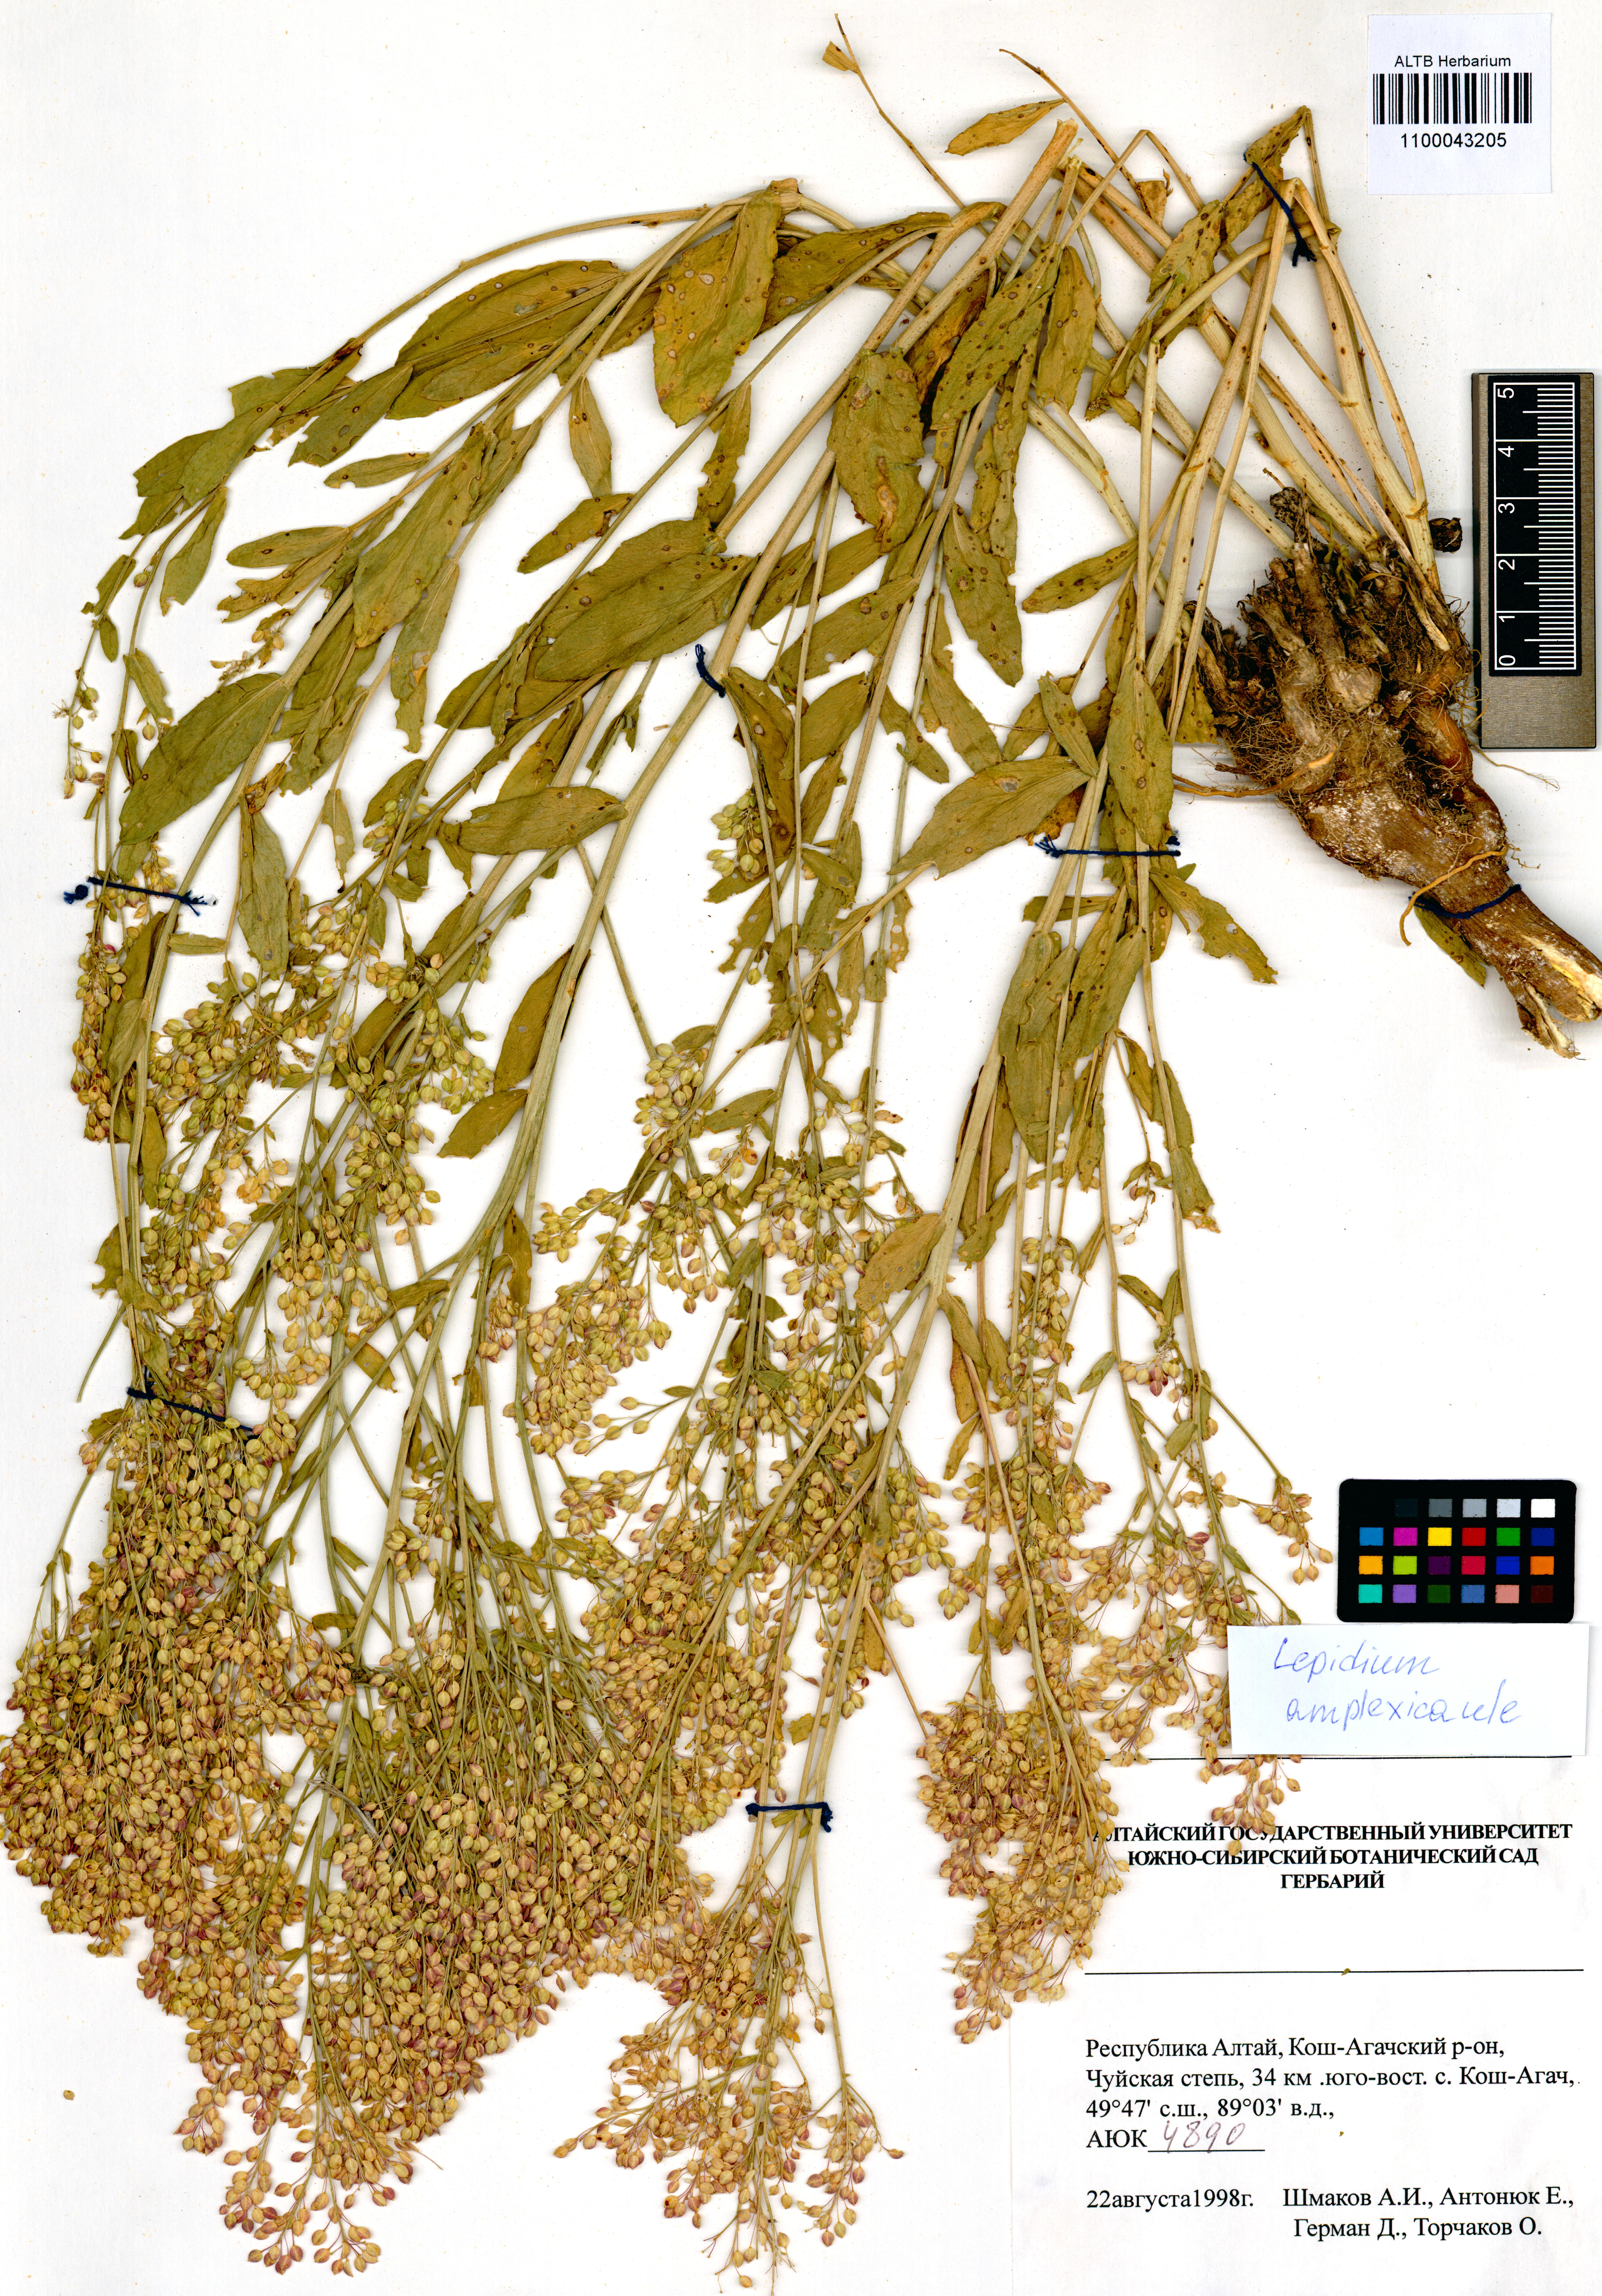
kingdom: Plantae
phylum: Tracheophyta
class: Magnoliopsida
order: Brassicales
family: Brassicaceae
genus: Lepidium
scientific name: Lepidium amplexicaule
